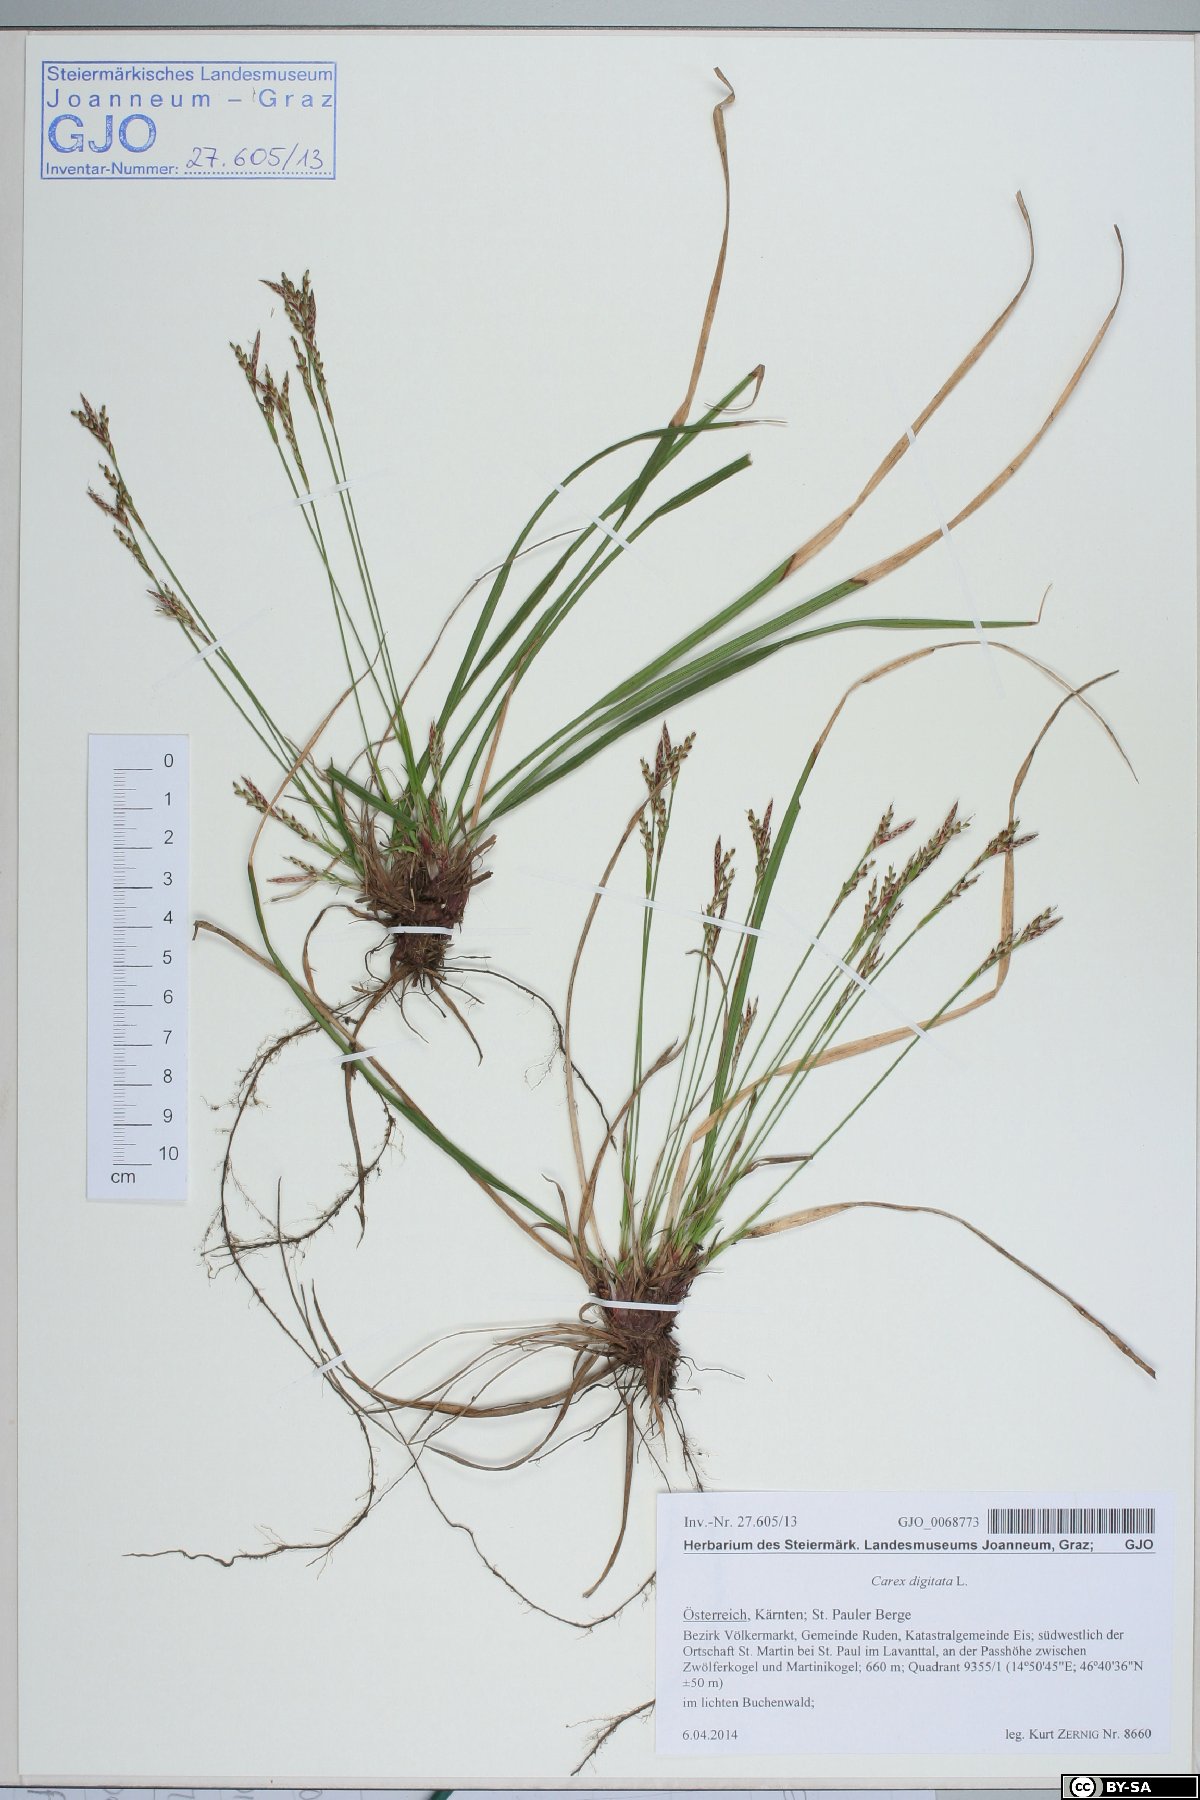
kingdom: Plantae
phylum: Tracheophyta
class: Liliopsida
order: Poales
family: Cyperaceae
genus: Carex
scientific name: Carex digitata
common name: Fingered sedge
